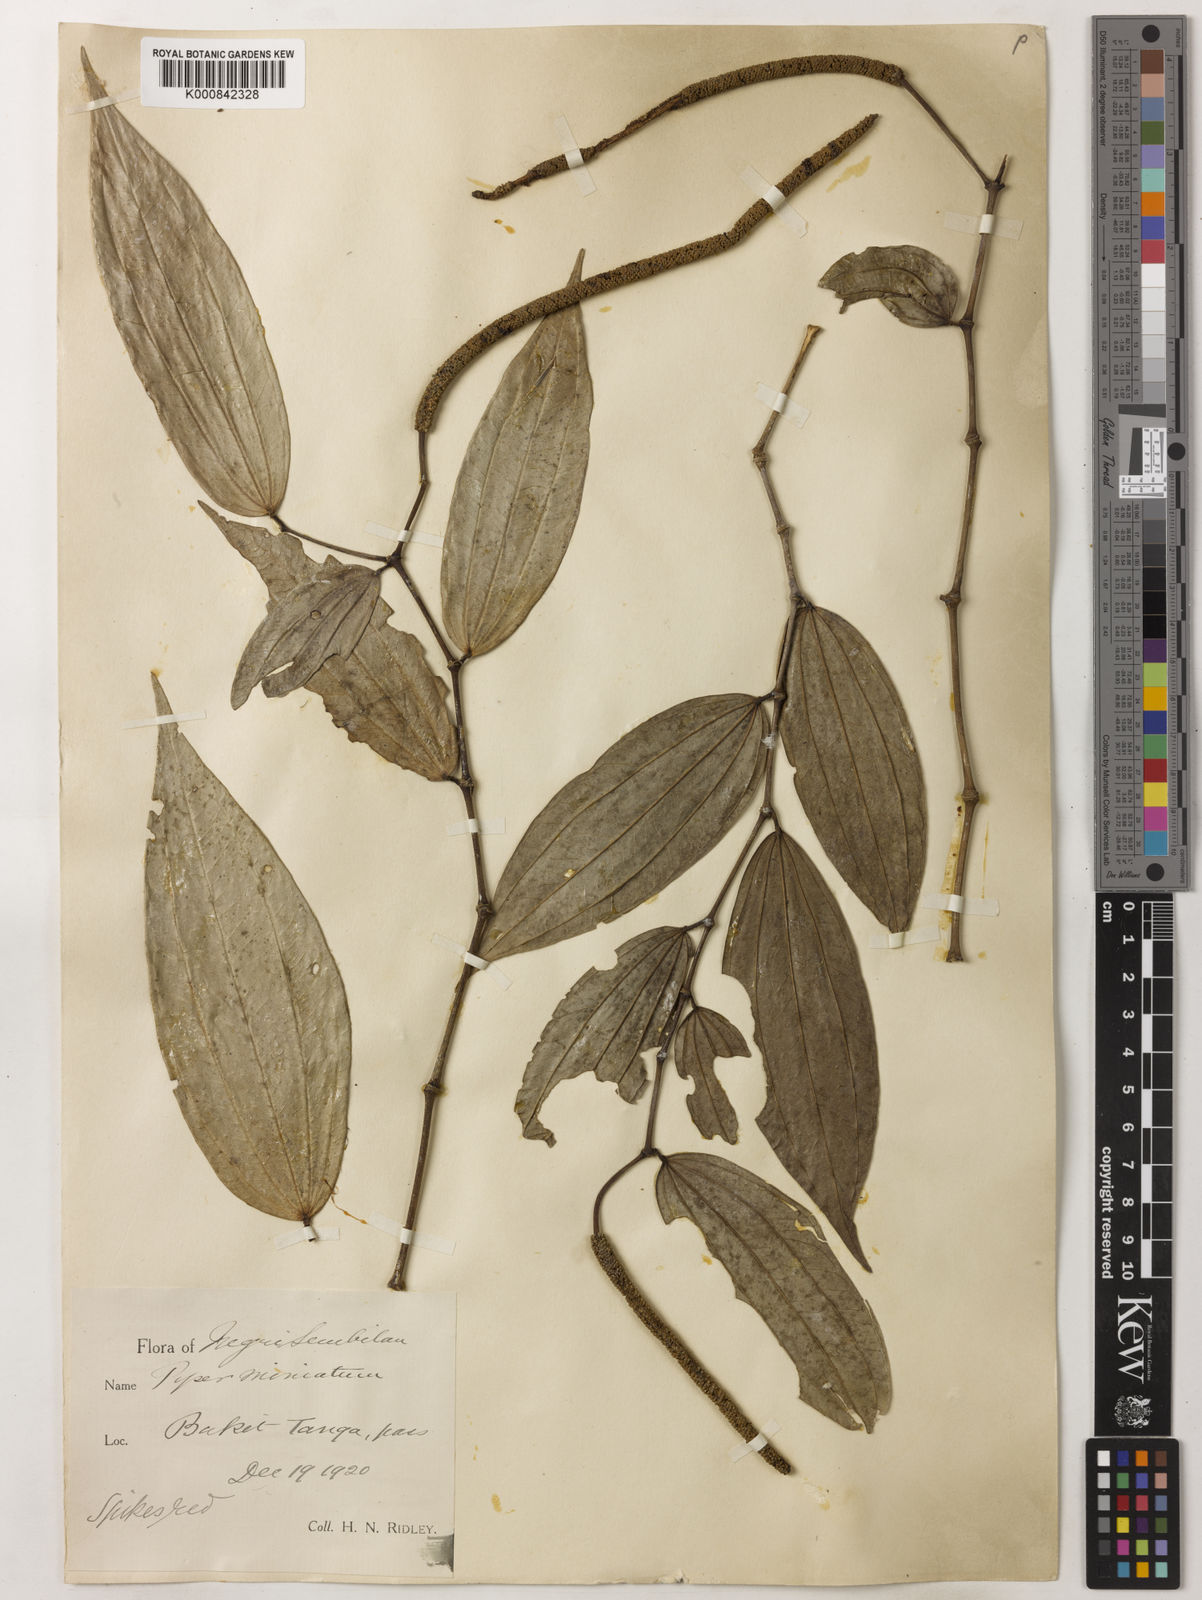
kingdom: Plantae
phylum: Tracheophyta
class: Magnoliopsida
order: Piperales
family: Piperaceae
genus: Piper
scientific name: Piper macropiper
